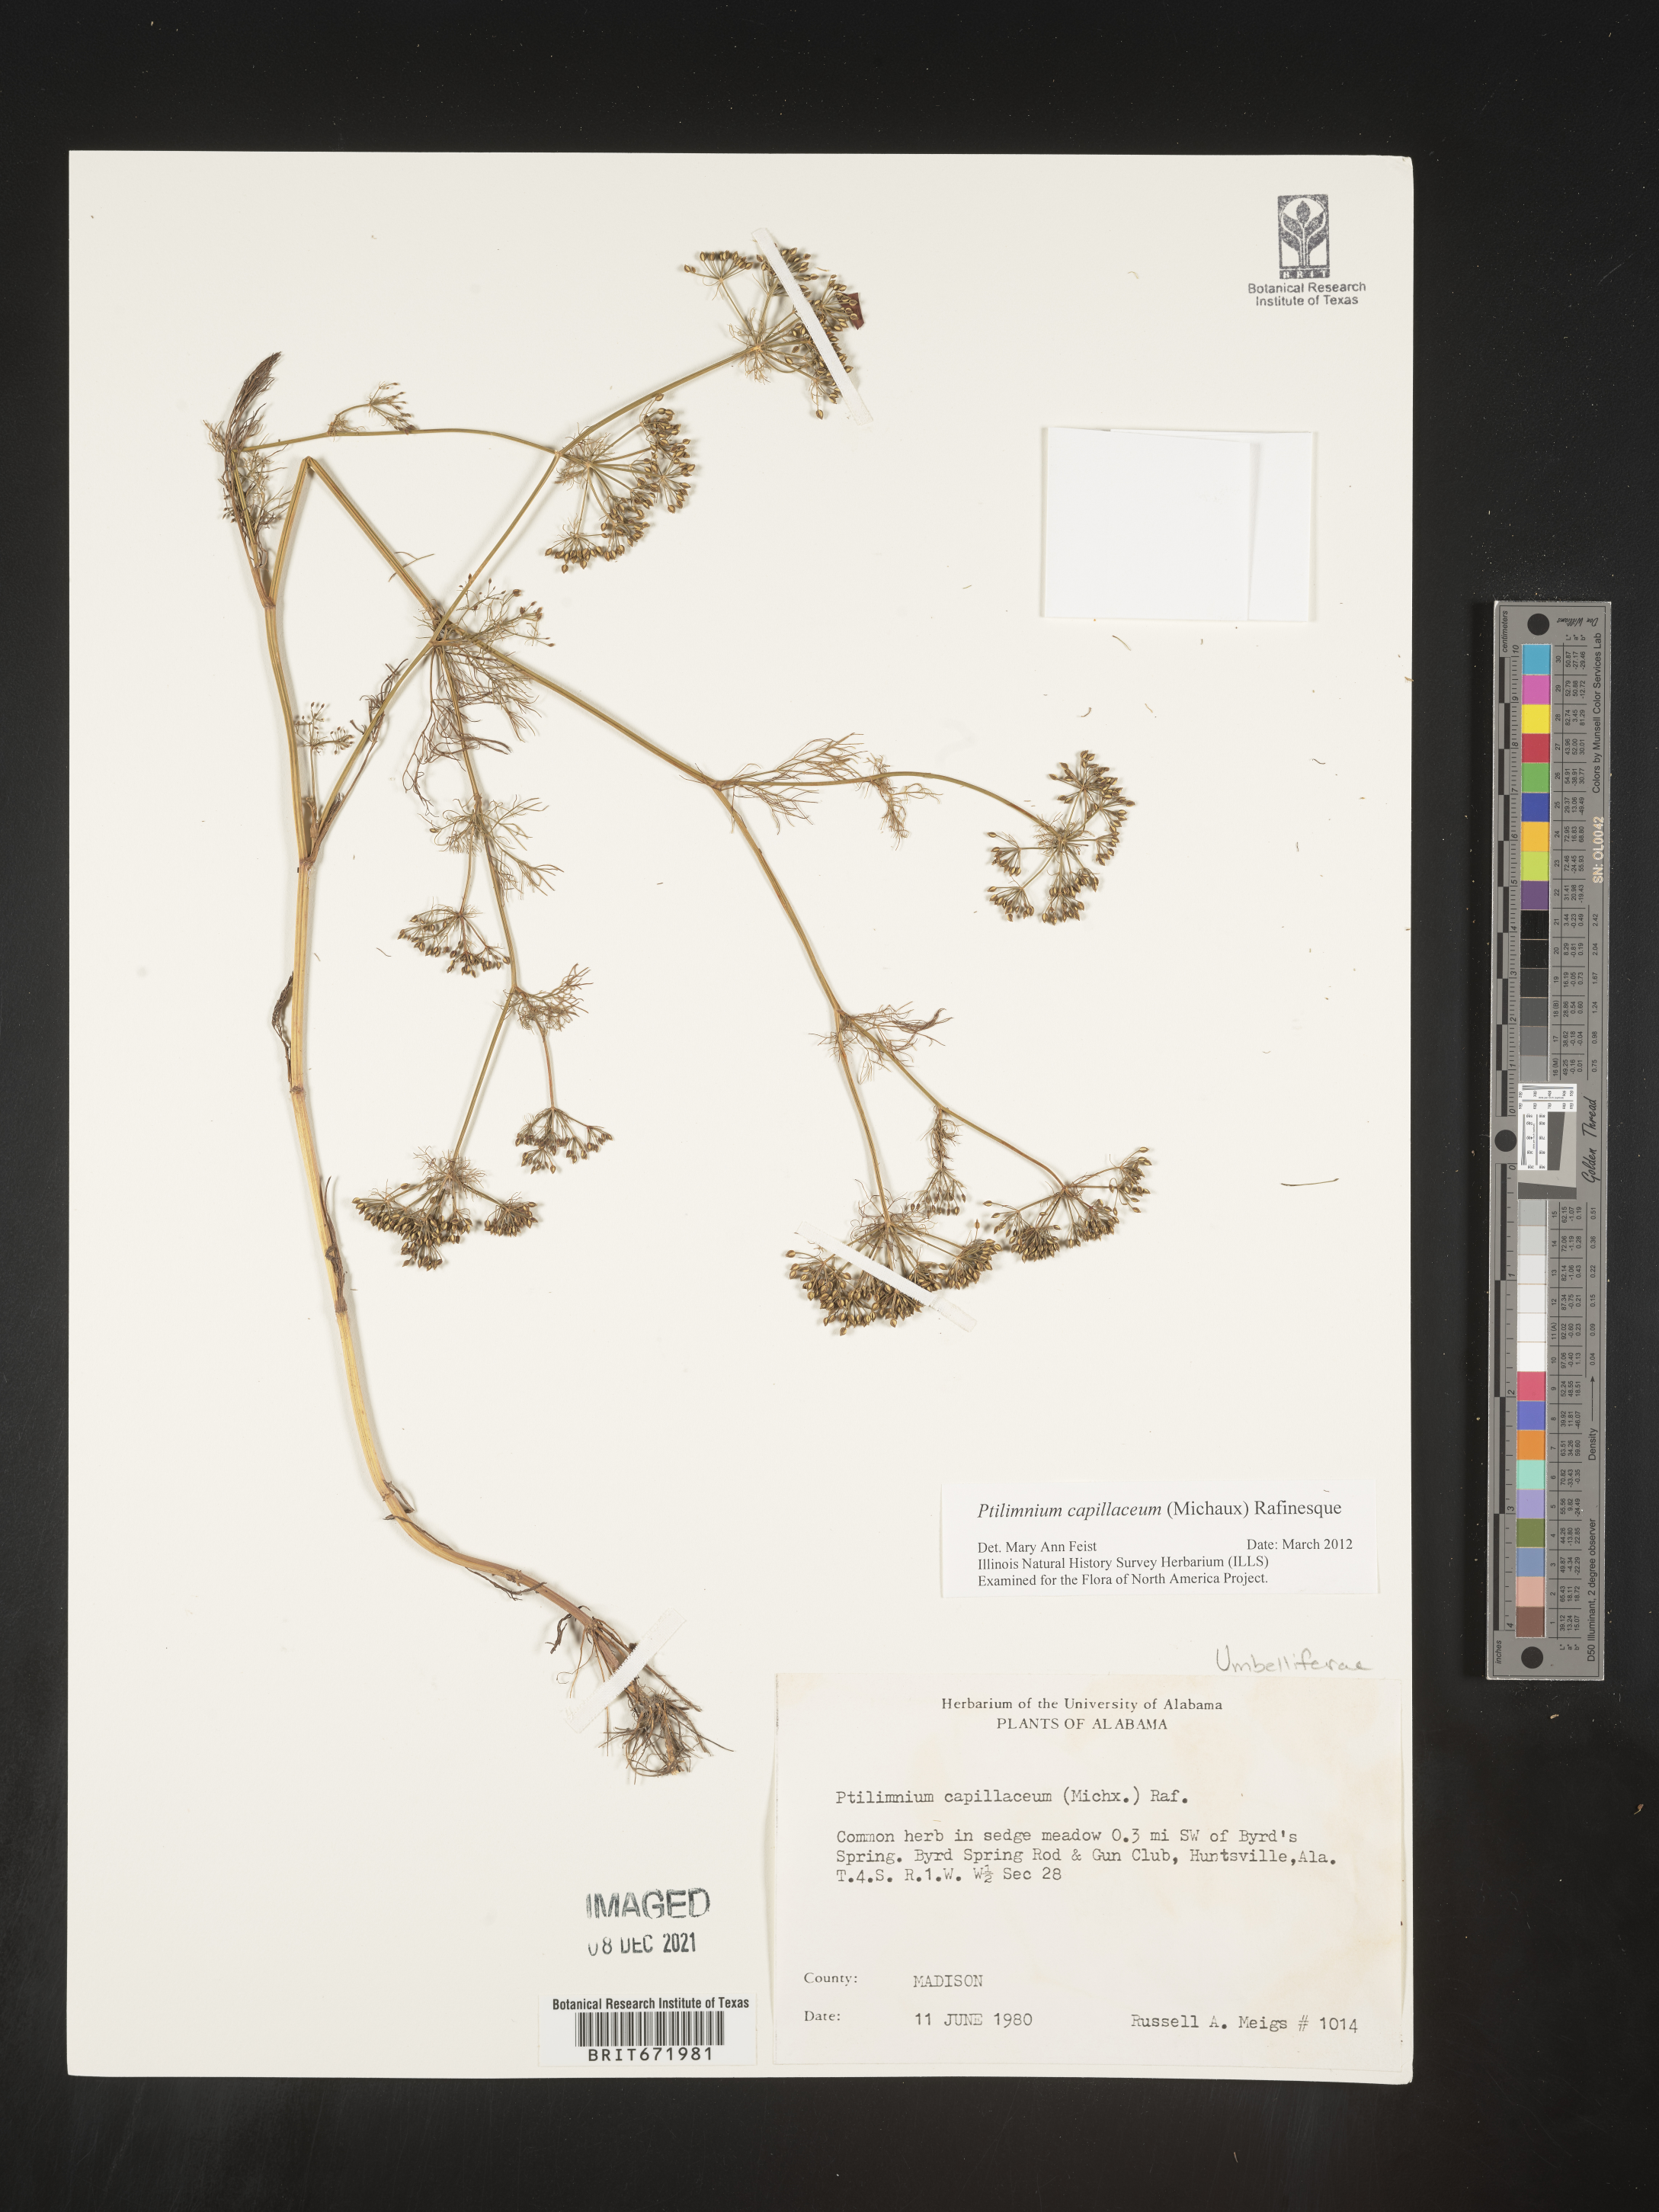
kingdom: Plantae
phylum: Tracheophyta
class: Magnoliopsida
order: Apiales
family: Apiaceae
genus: Ptilimnium
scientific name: Ptilimnium capillaceum
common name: Herbwilliam
